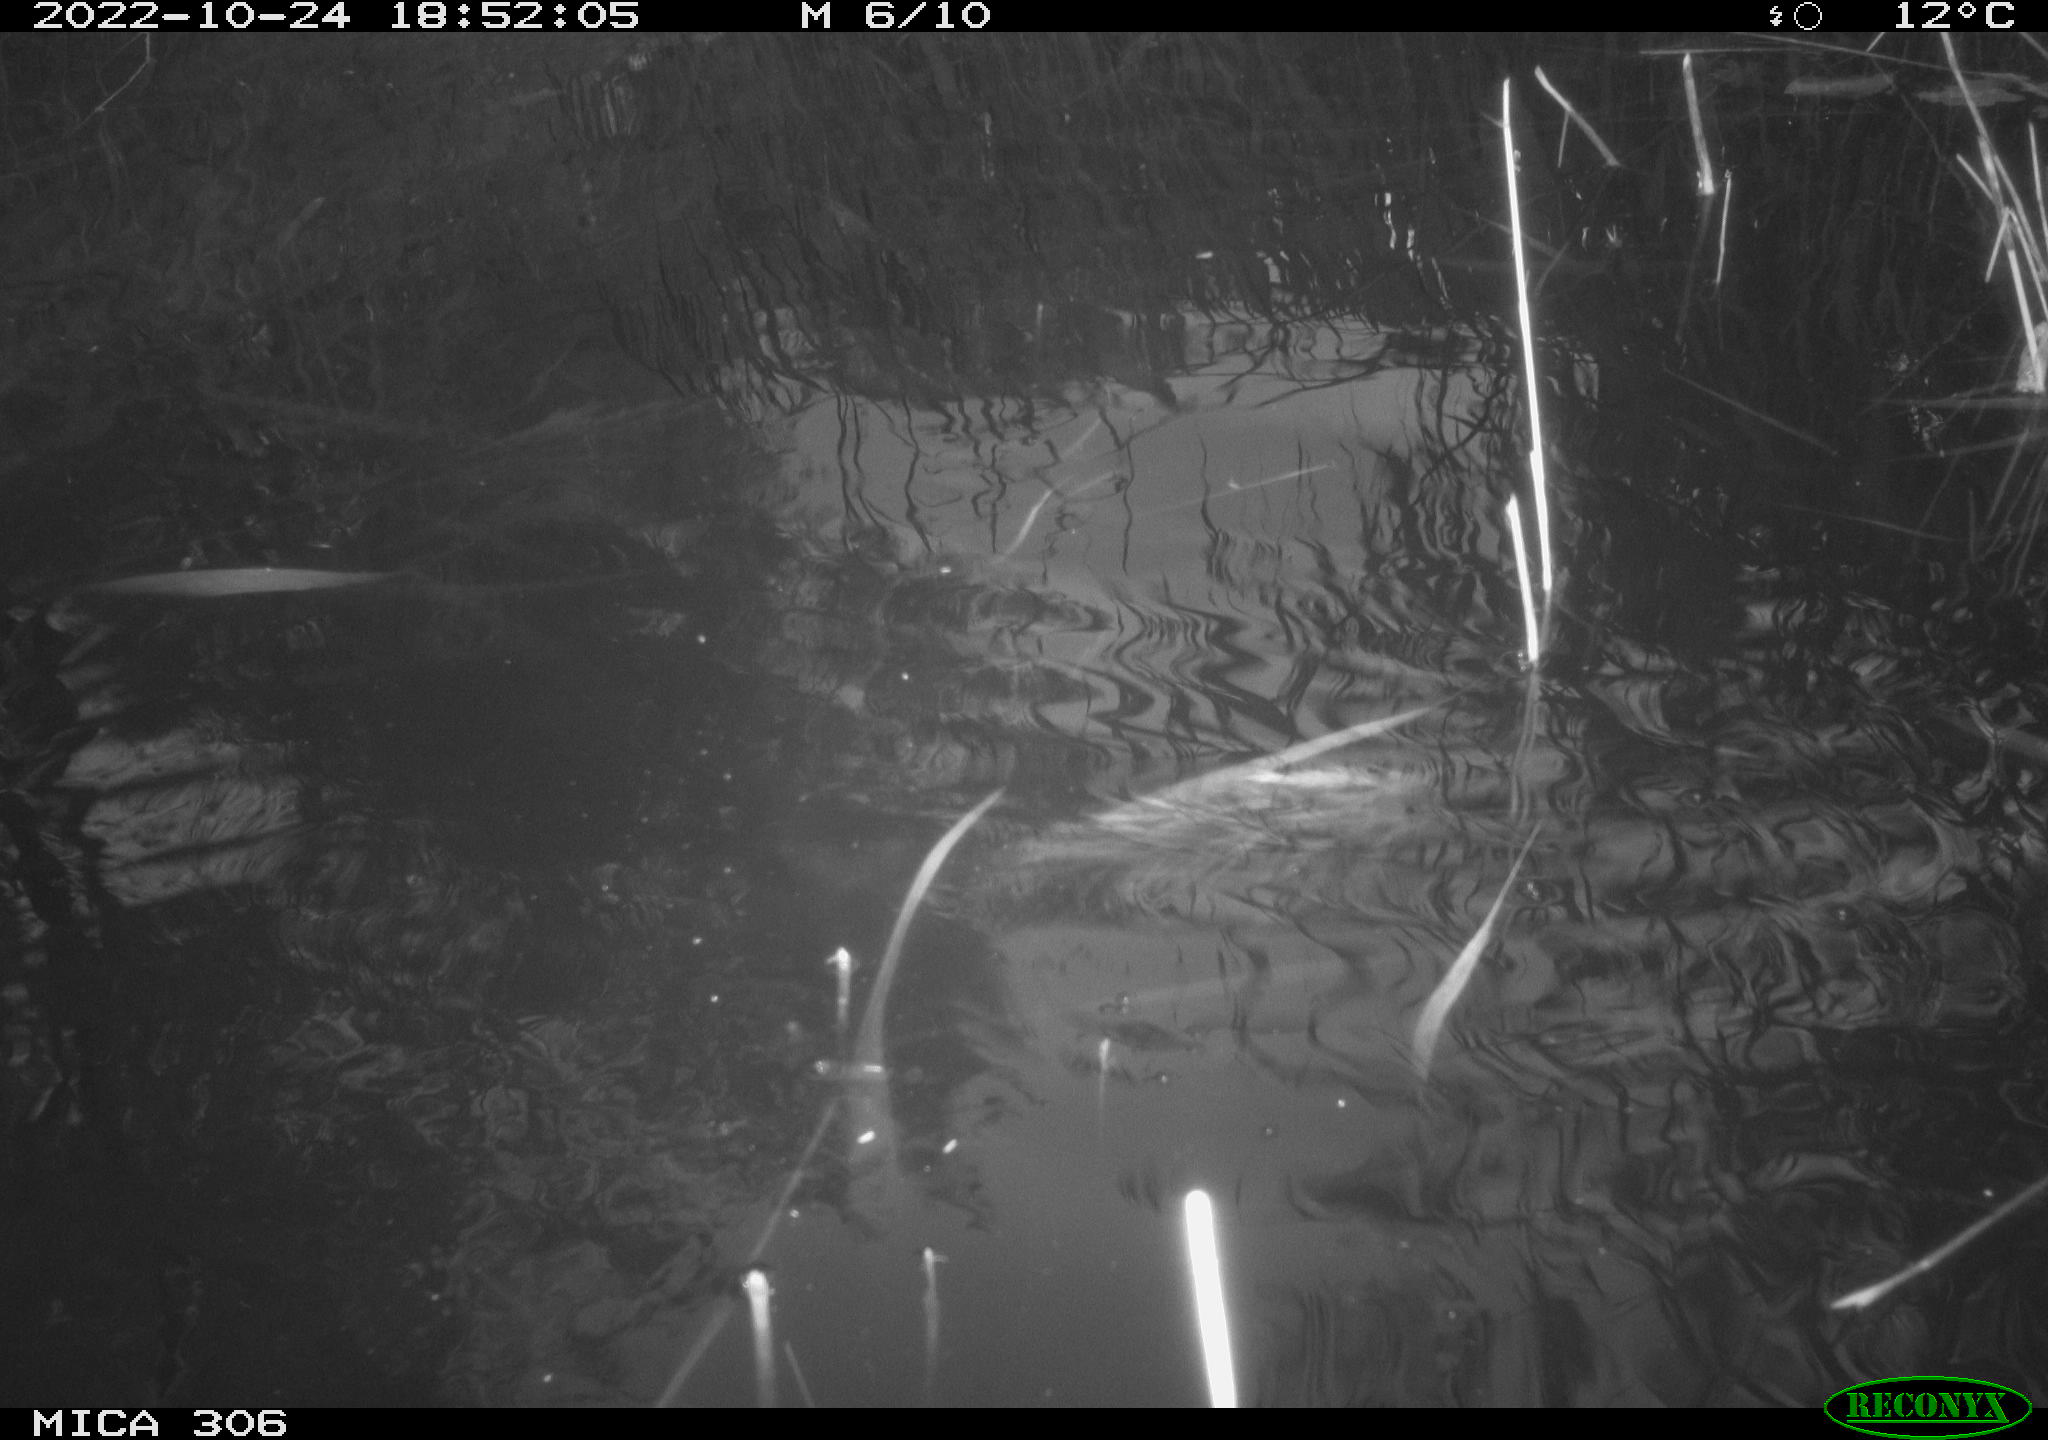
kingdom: Animalia
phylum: Chordata
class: Mammalia
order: Rodentia
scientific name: Rodentia
